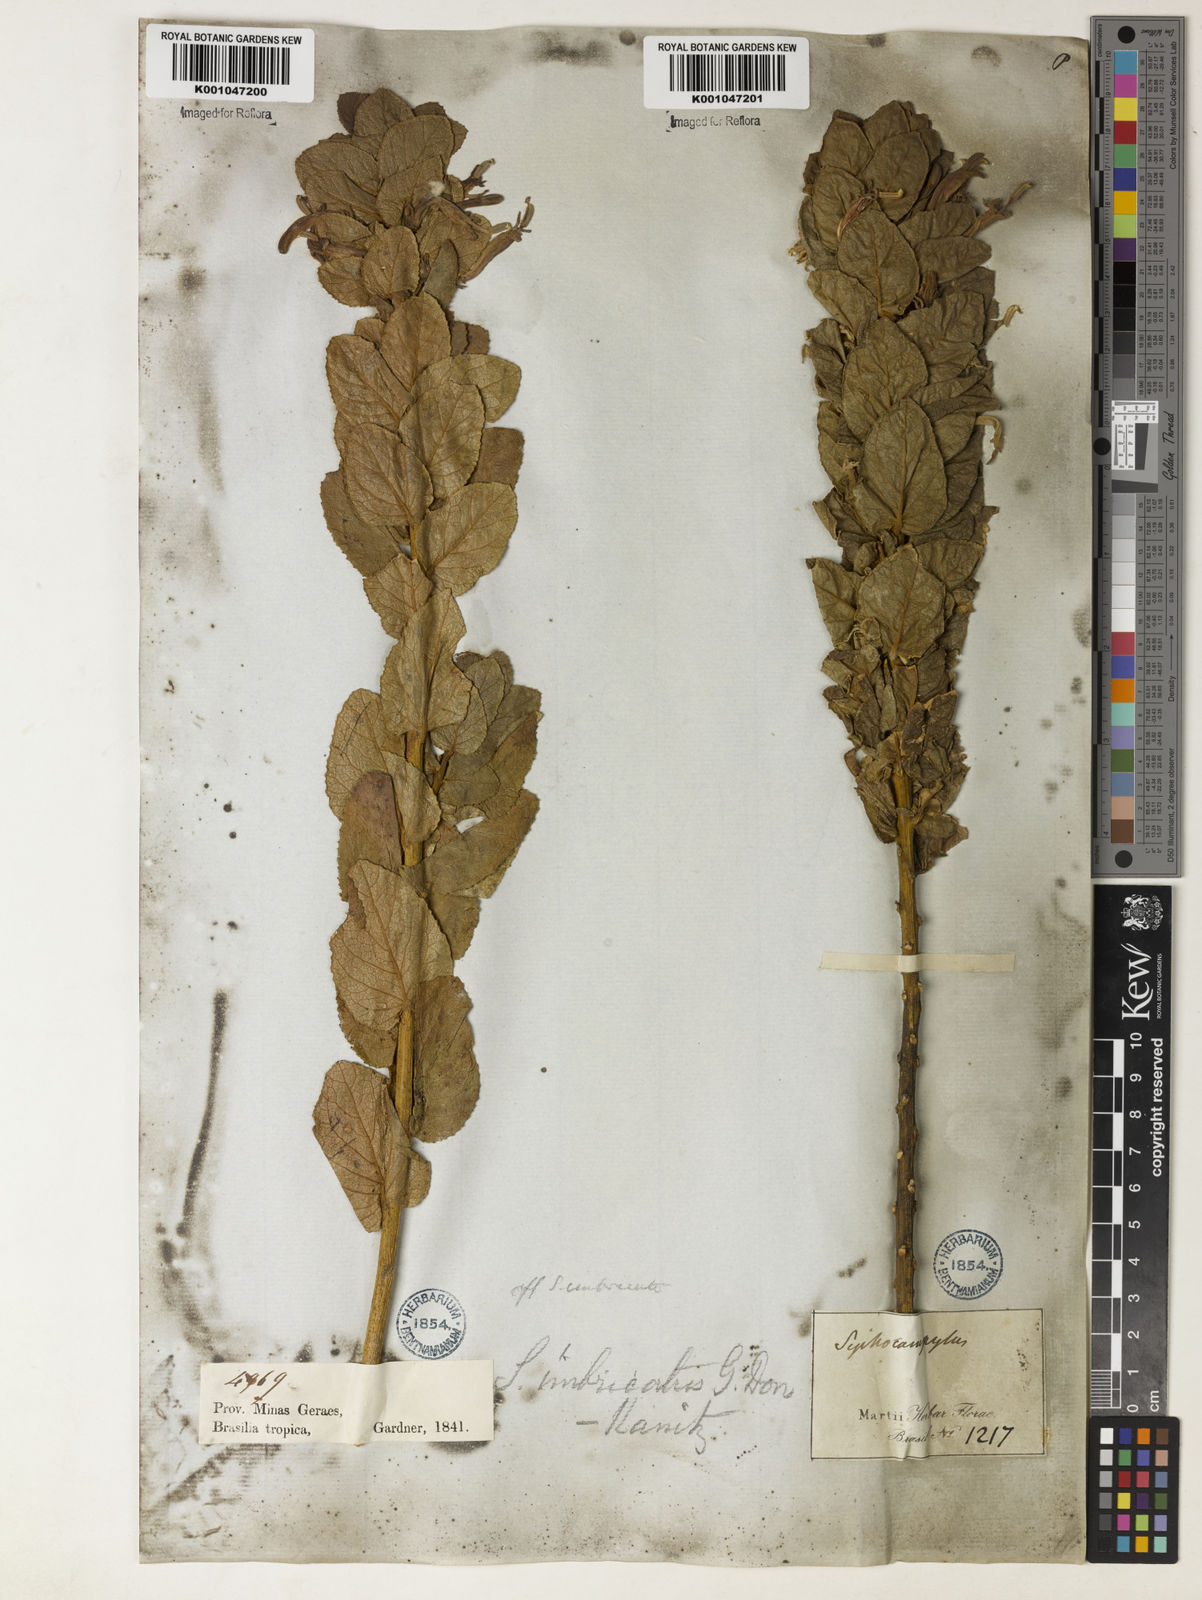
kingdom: Plantae
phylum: Tracheophyta
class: Magnoliopsida
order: Asterales
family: Campanulaceae
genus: Siphocampylus
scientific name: Siphocampylus imbricatus
